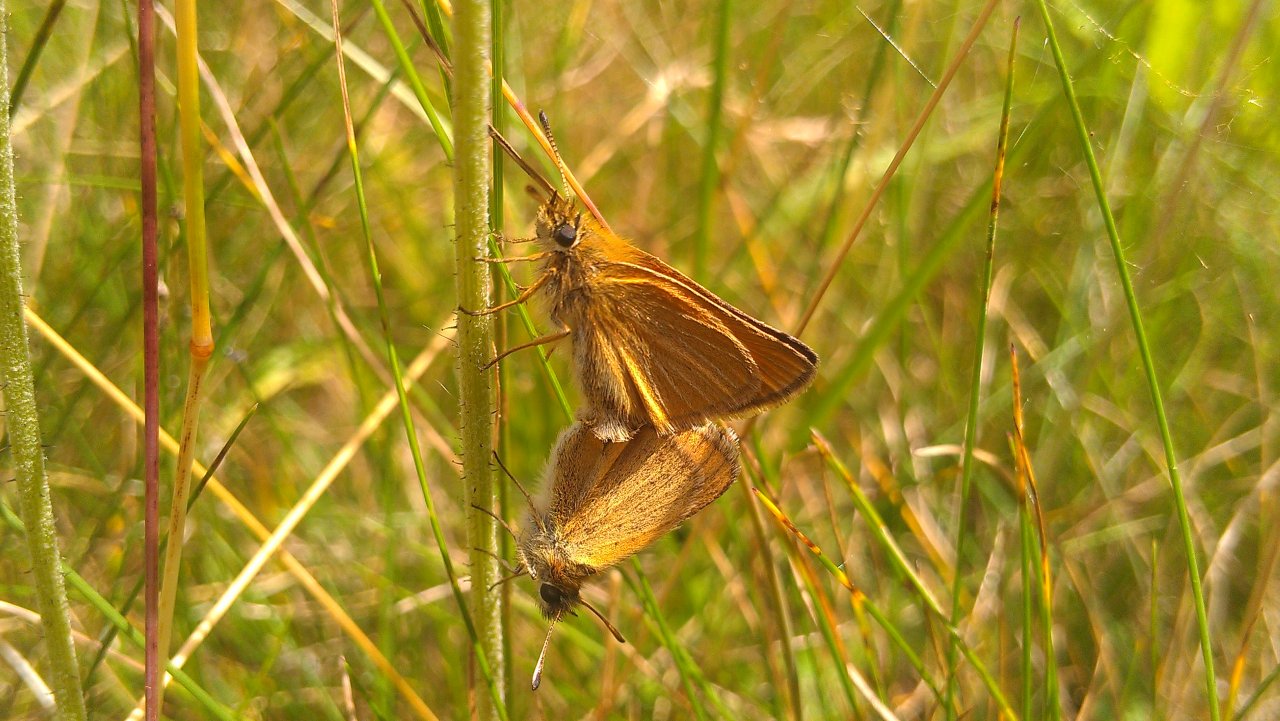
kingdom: Animalia
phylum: Arthropoda
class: Insecta
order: Lepidoptera
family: Hesperiidae
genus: Thymelicus
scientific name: Thymelicus lineola
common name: European Skipper
